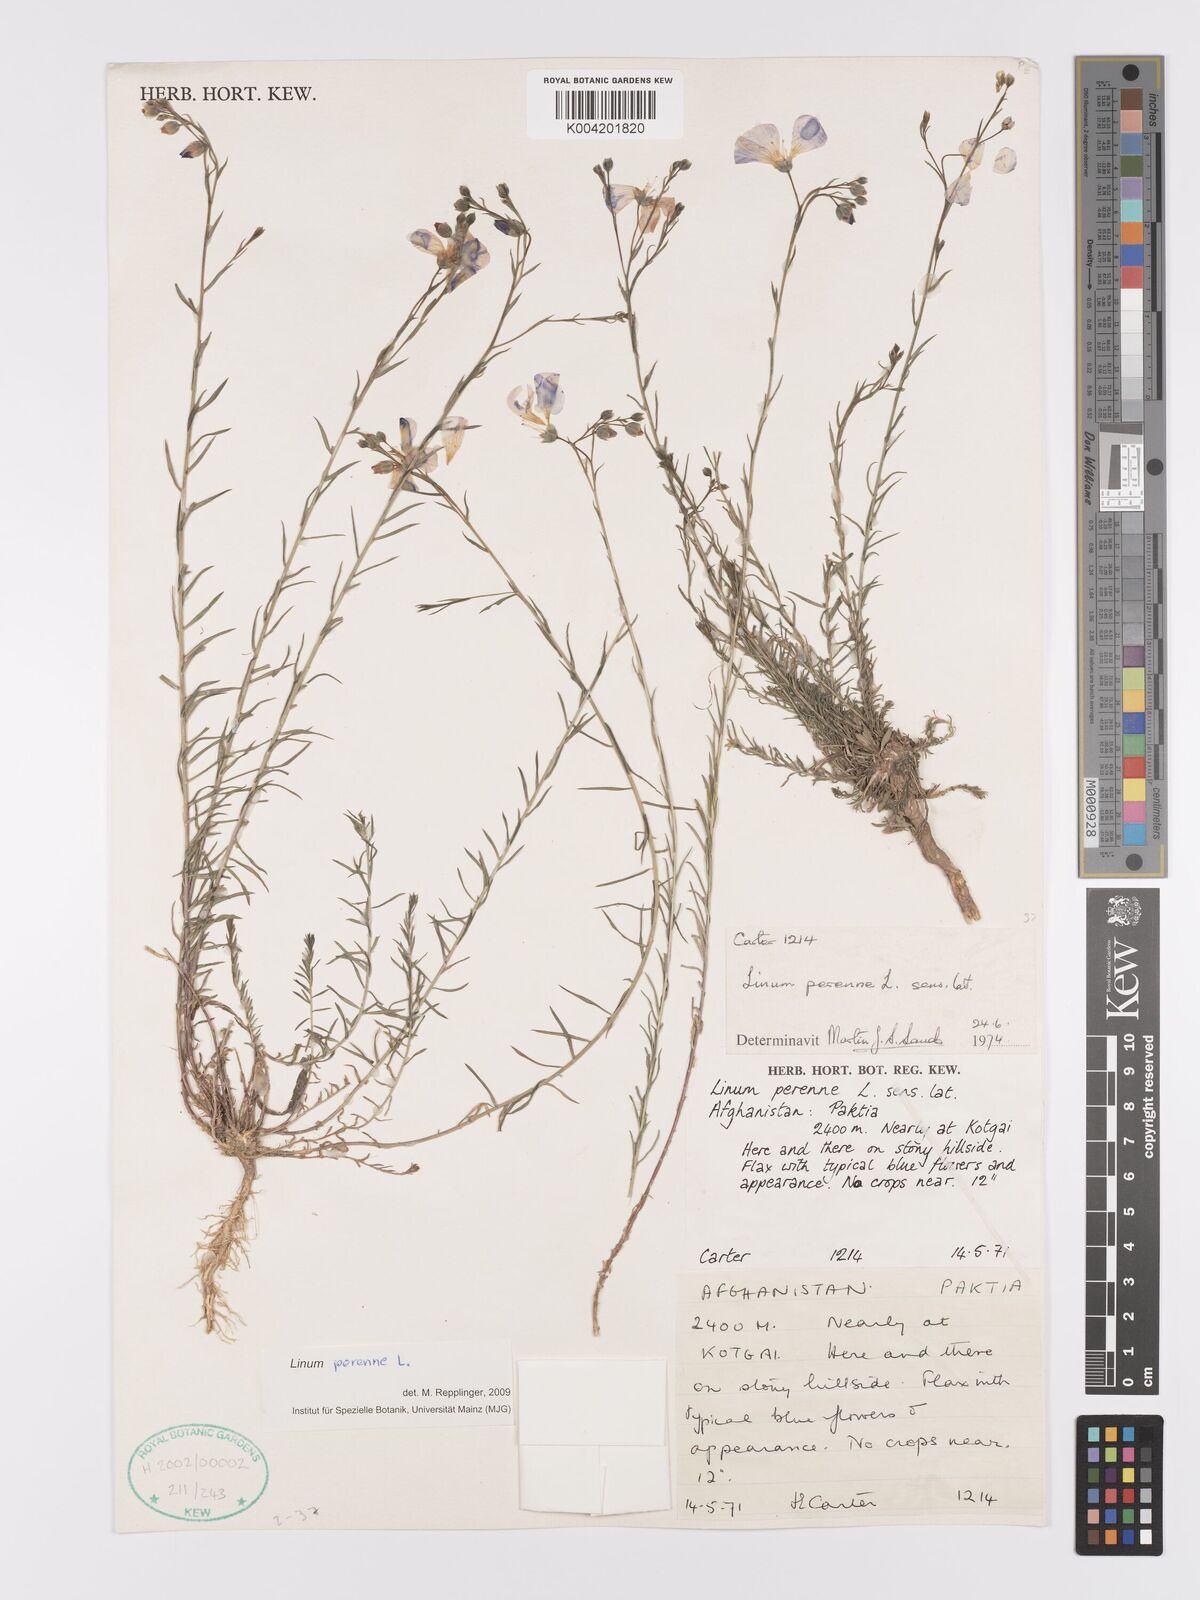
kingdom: Plantae
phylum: Tracheophyta
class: Magnoliopsida
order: Malpighiales
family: Linaceae
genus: Linum
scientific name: Linum
